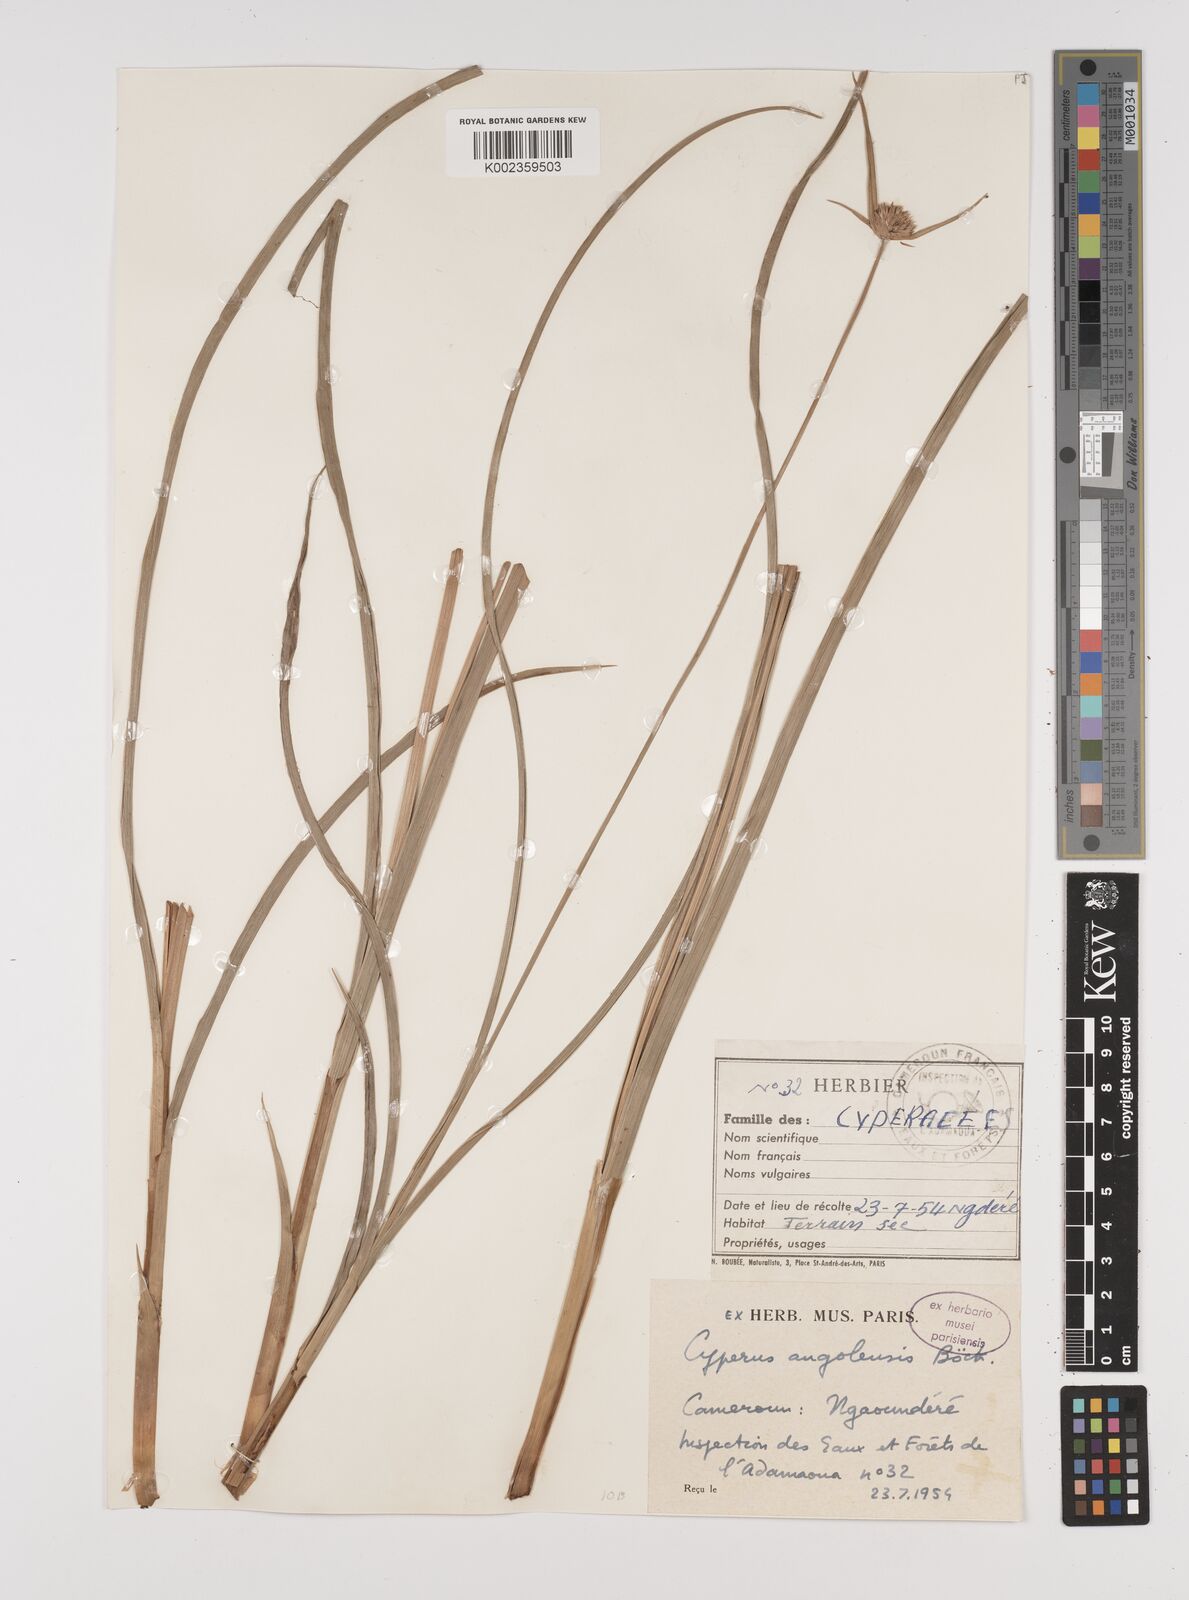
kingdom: Plantae
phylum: Tracheophyta
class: Liliopsida
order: Poales
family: Cyperaceae
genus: Cyperus
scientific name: Cyperus angolensis
